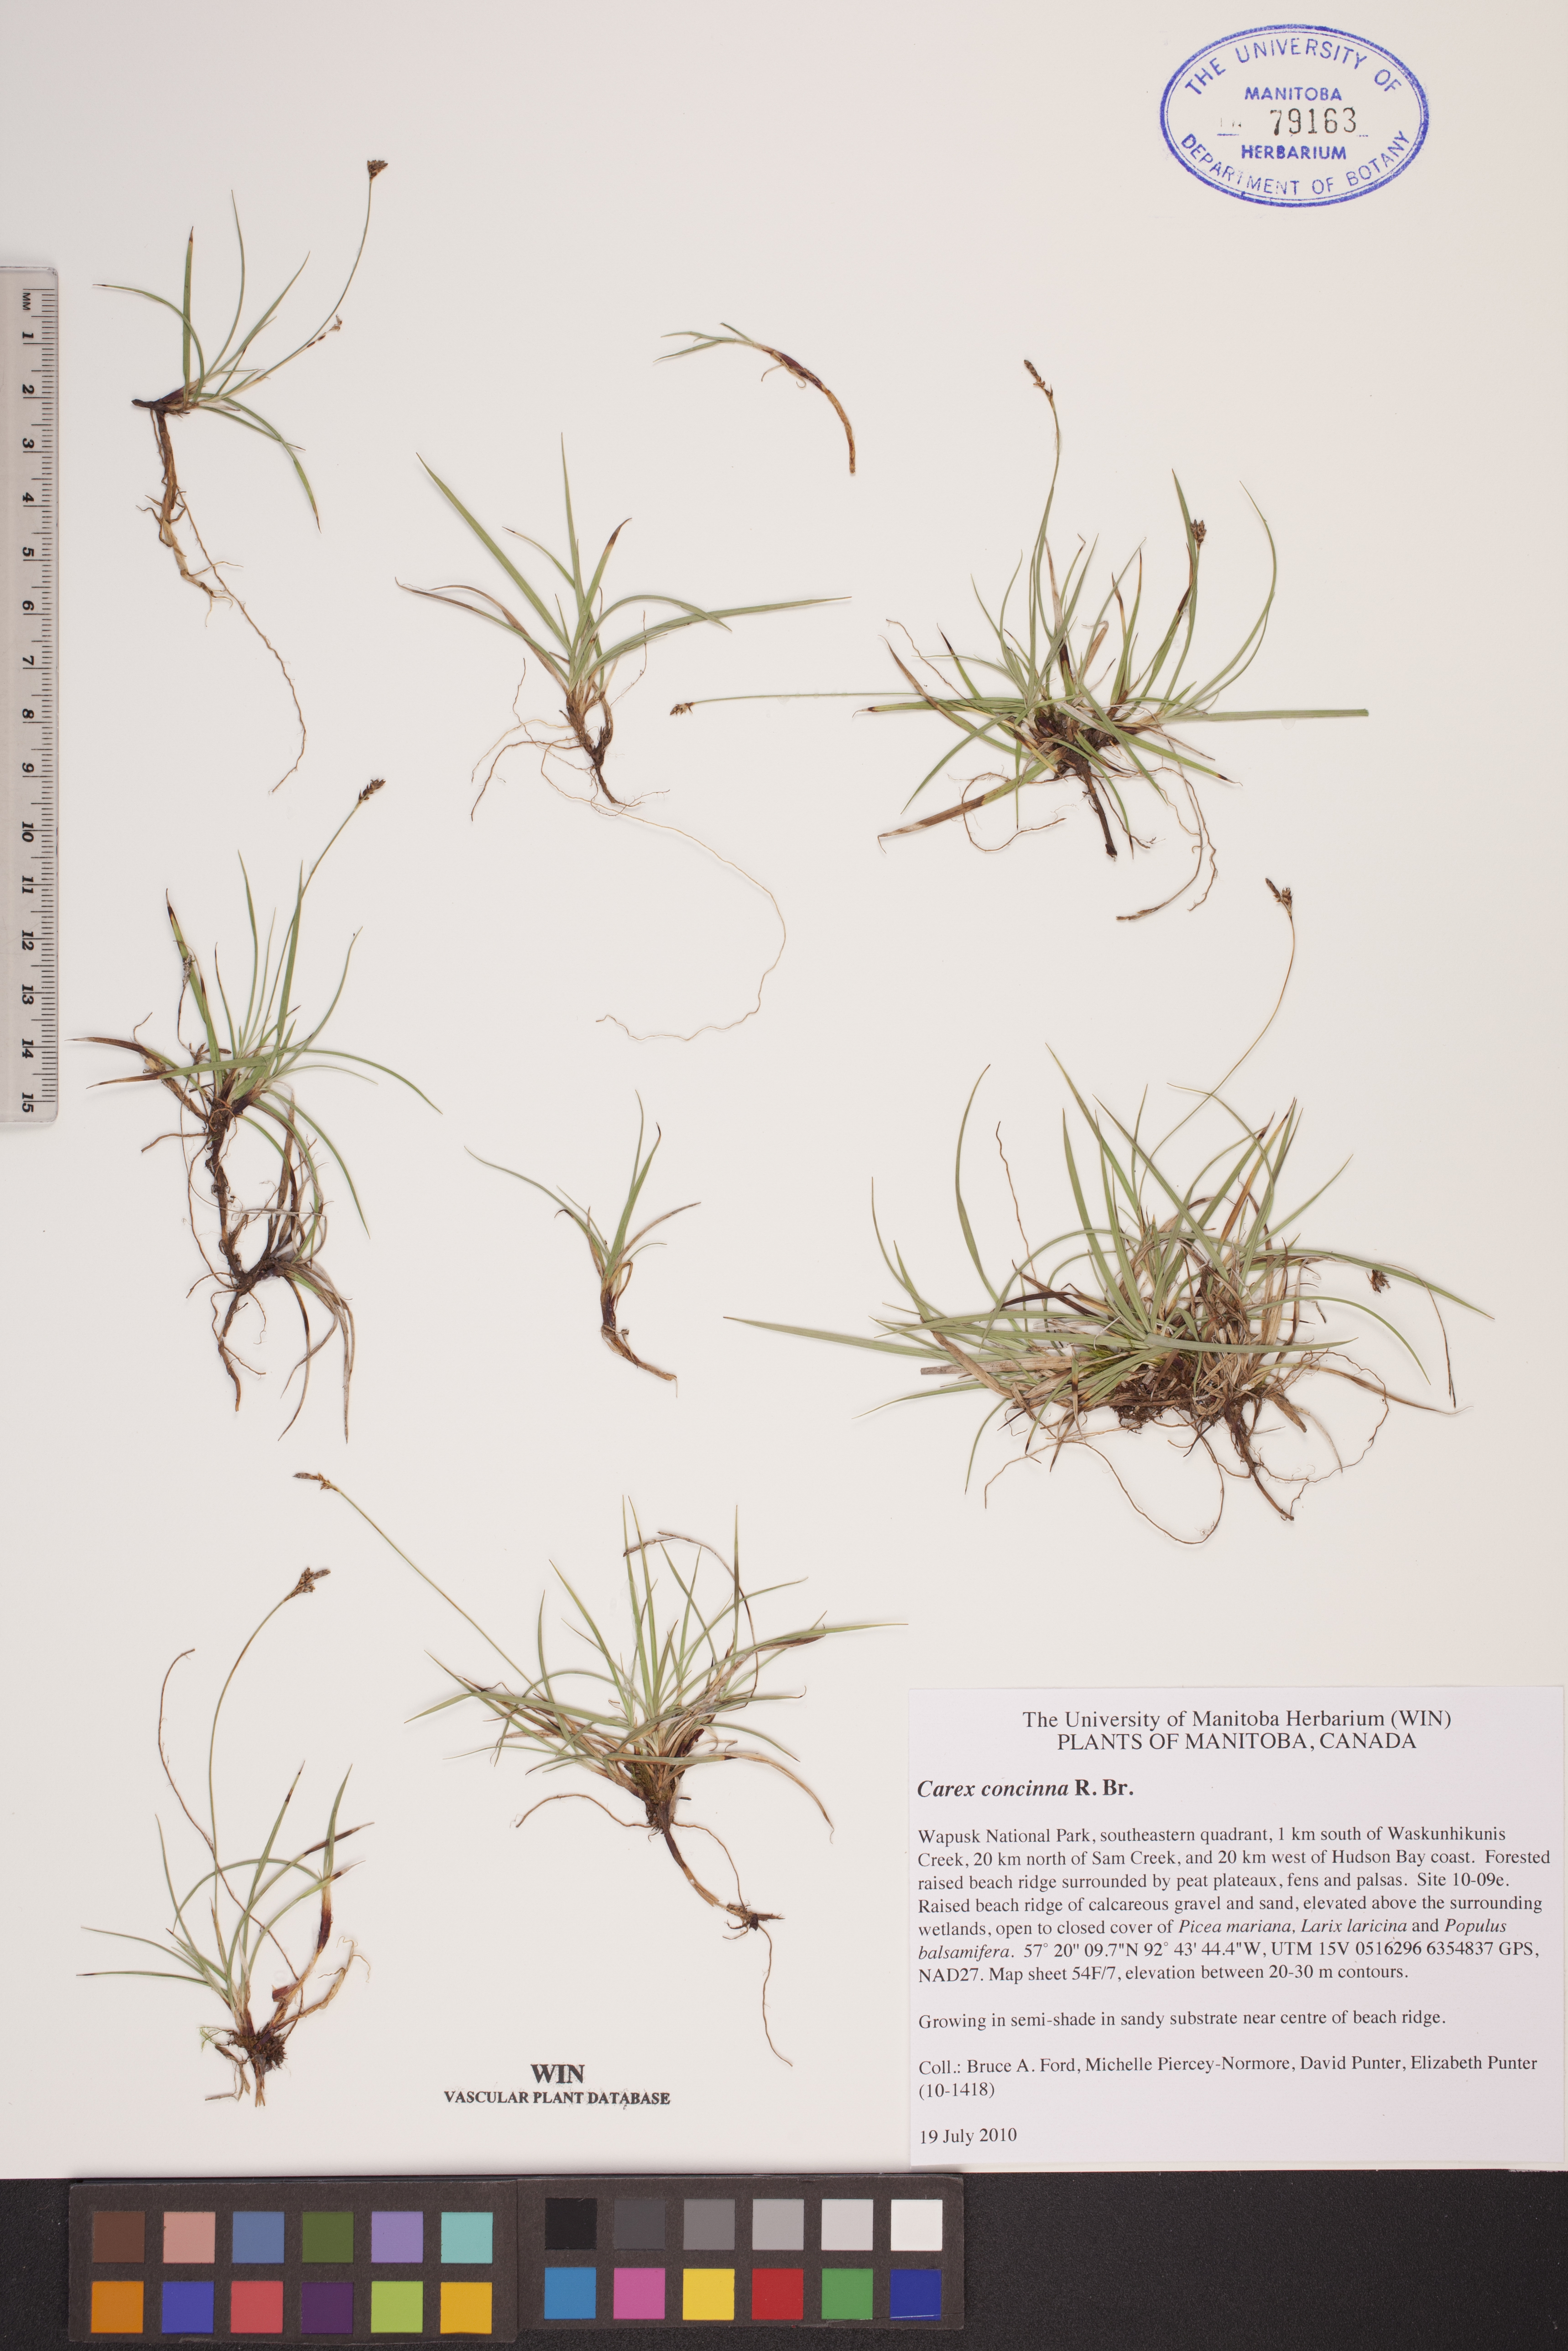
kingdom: Plantae
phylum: Tracheophyta
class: Liliopsida
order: Poales
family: Cyperaceae
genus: Carex
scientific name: Carex concinna
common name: Beautiful sedge
